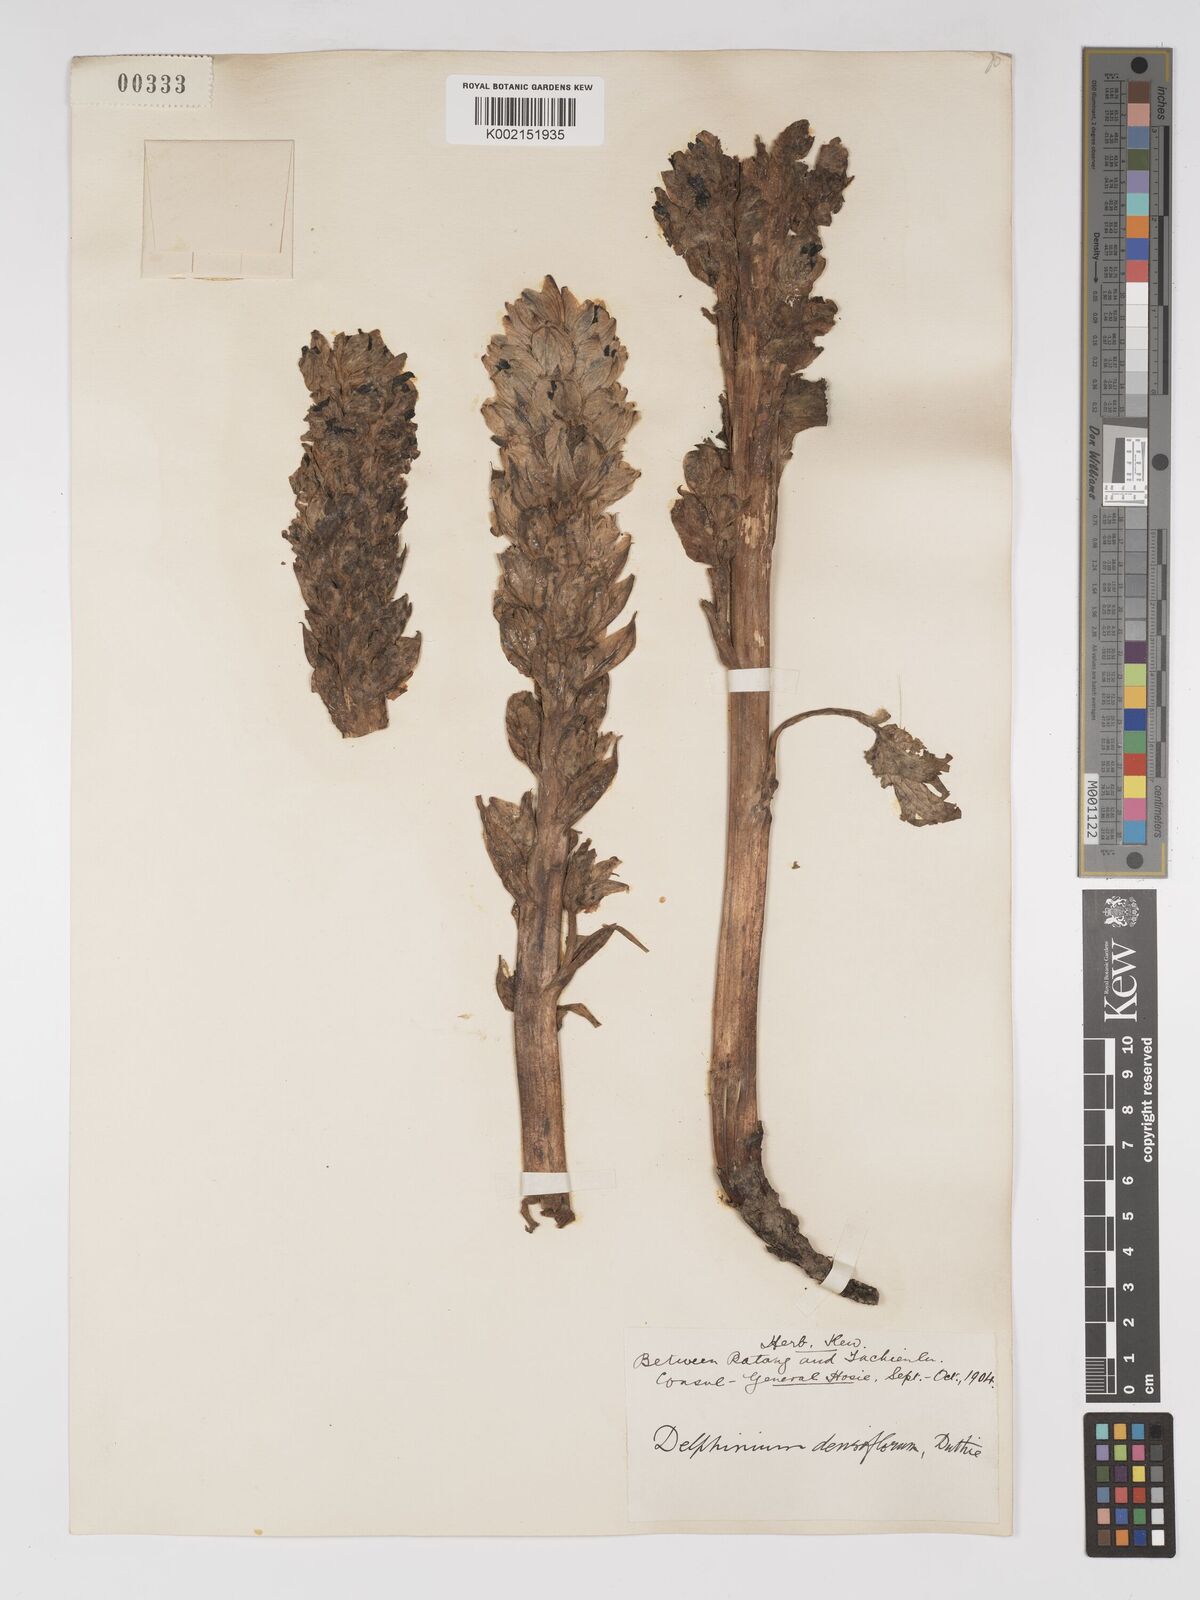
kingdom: Plantae
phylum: Tracheophyta
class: Magnoliopsida
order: Ranunculales
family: Ranunculaceae
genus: Delphinium
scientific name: Delphinium trichophorum
